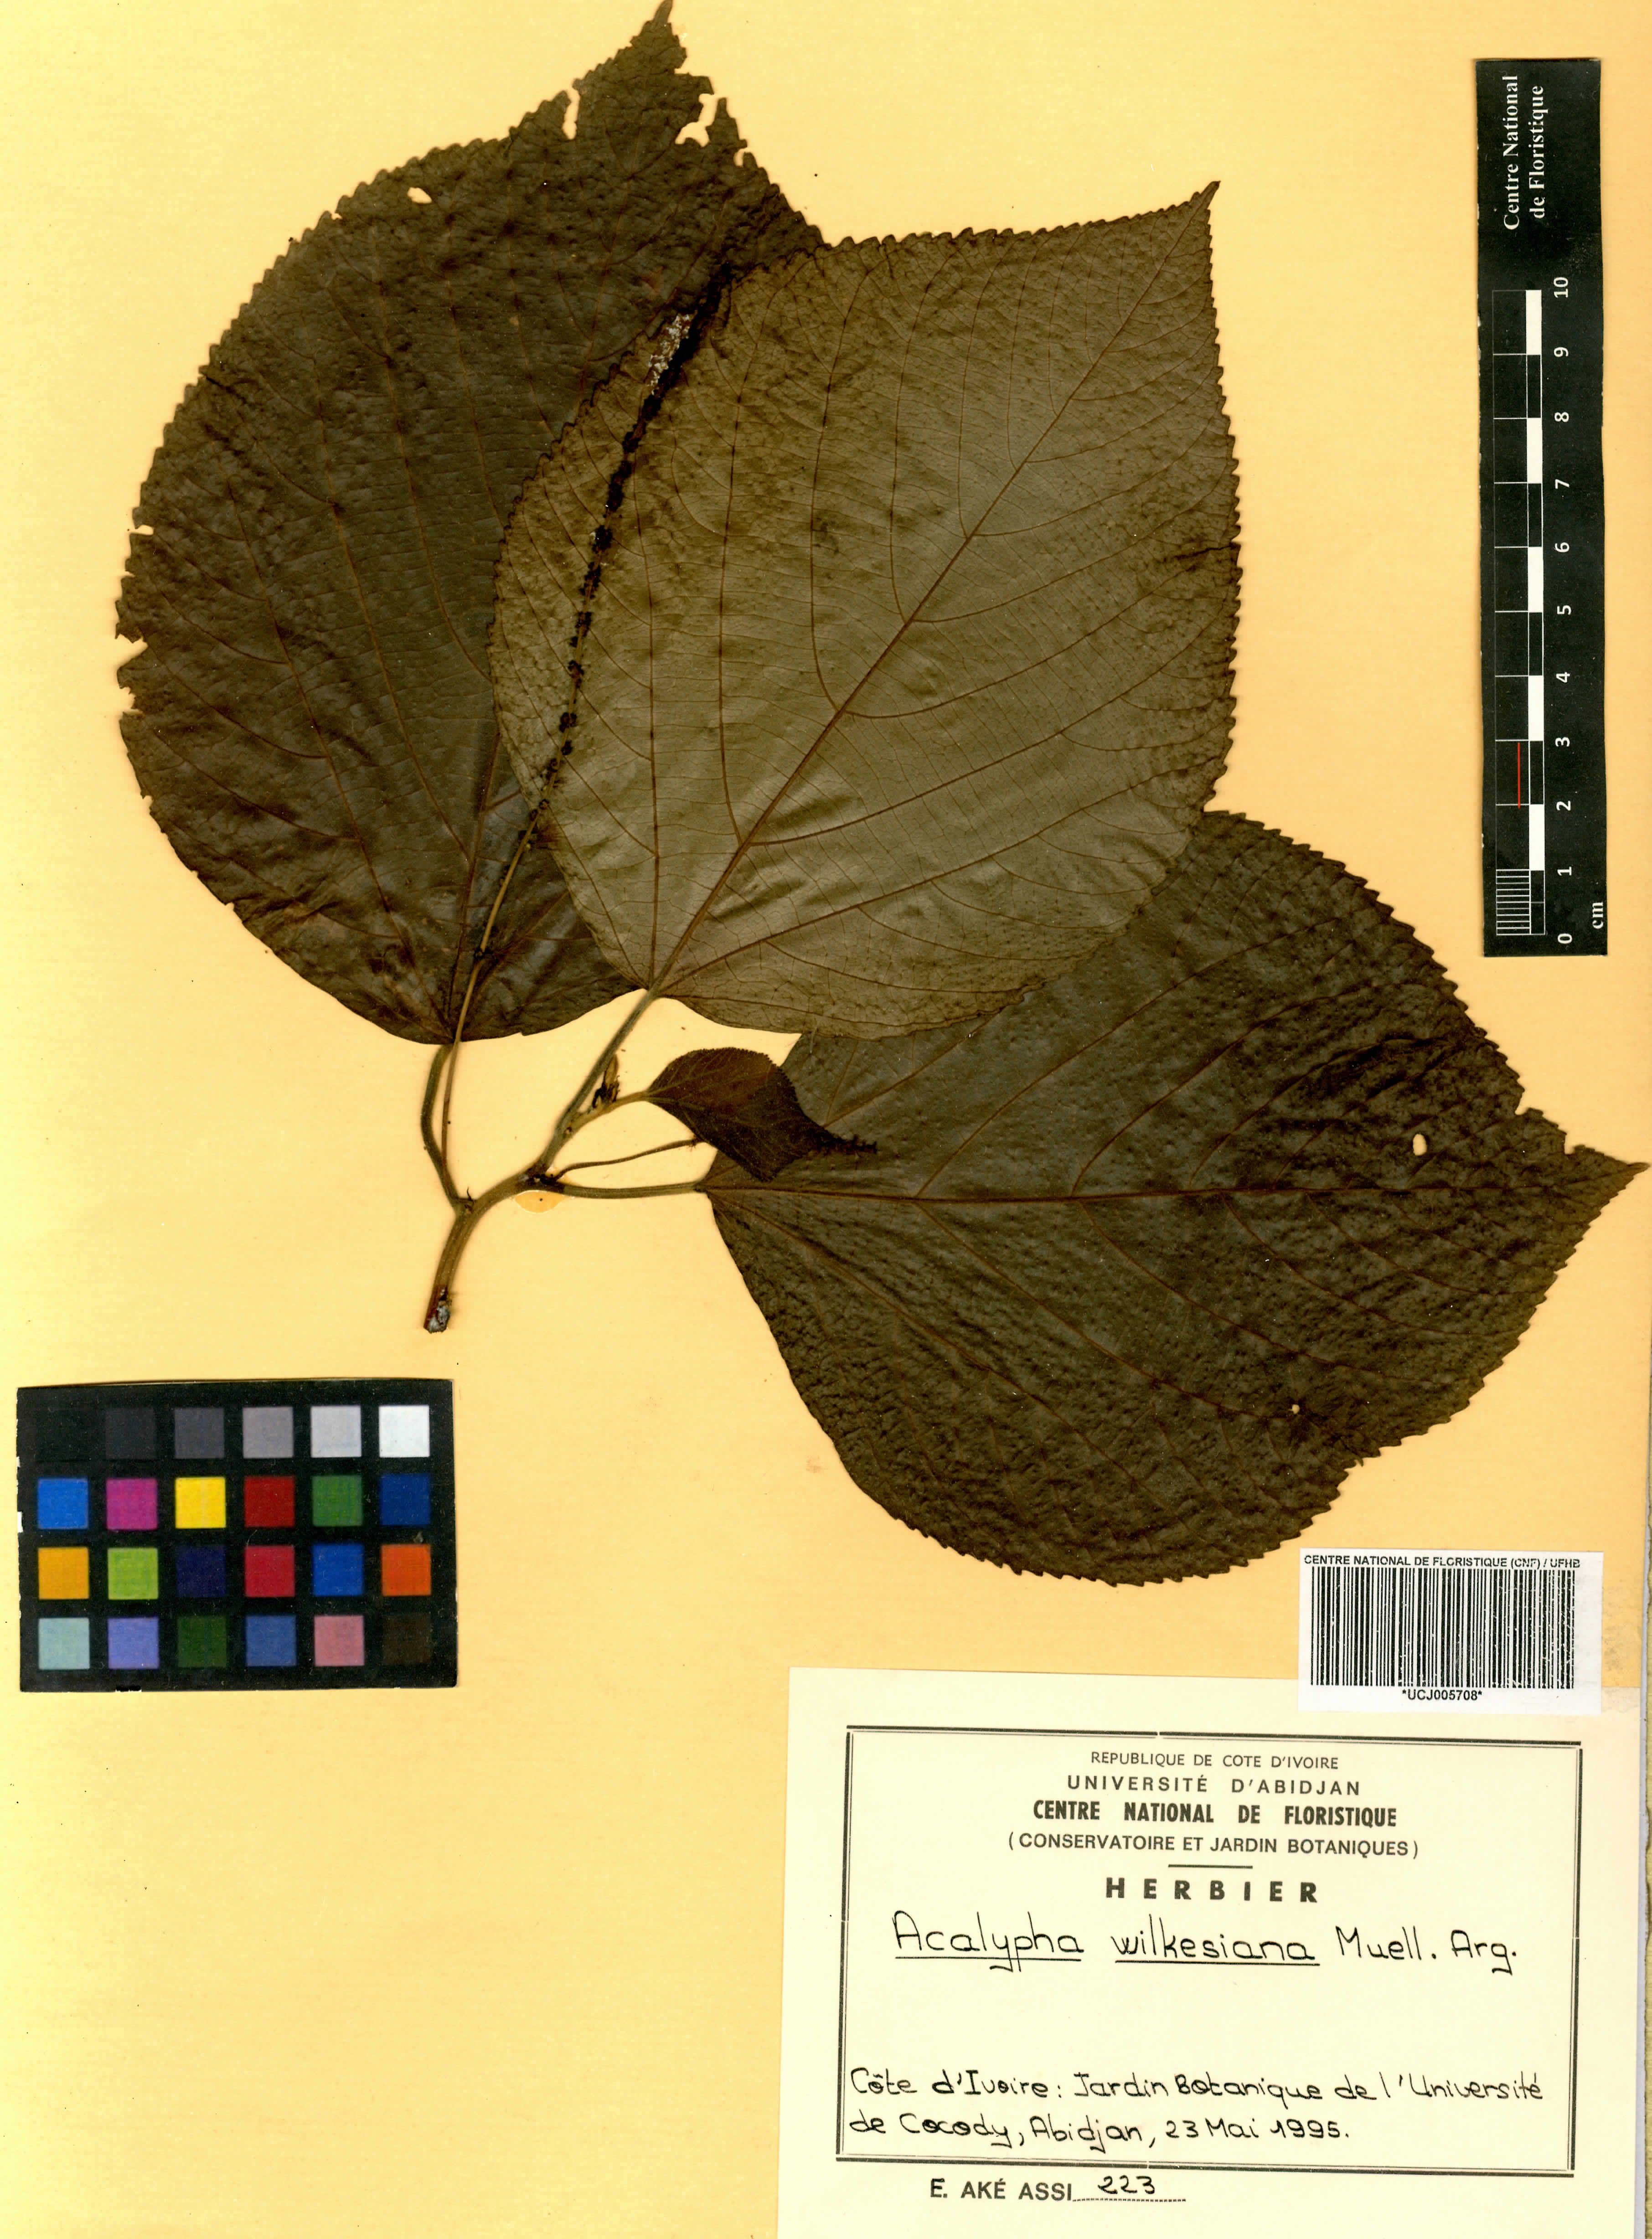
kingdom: Plantae
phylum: Tracheophyta
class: Magnoliopsida
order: Malpighiales
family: Euphorbiaceae
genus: Acalypha
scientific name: Acalypha wilkesiana
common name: Jacob's coat
